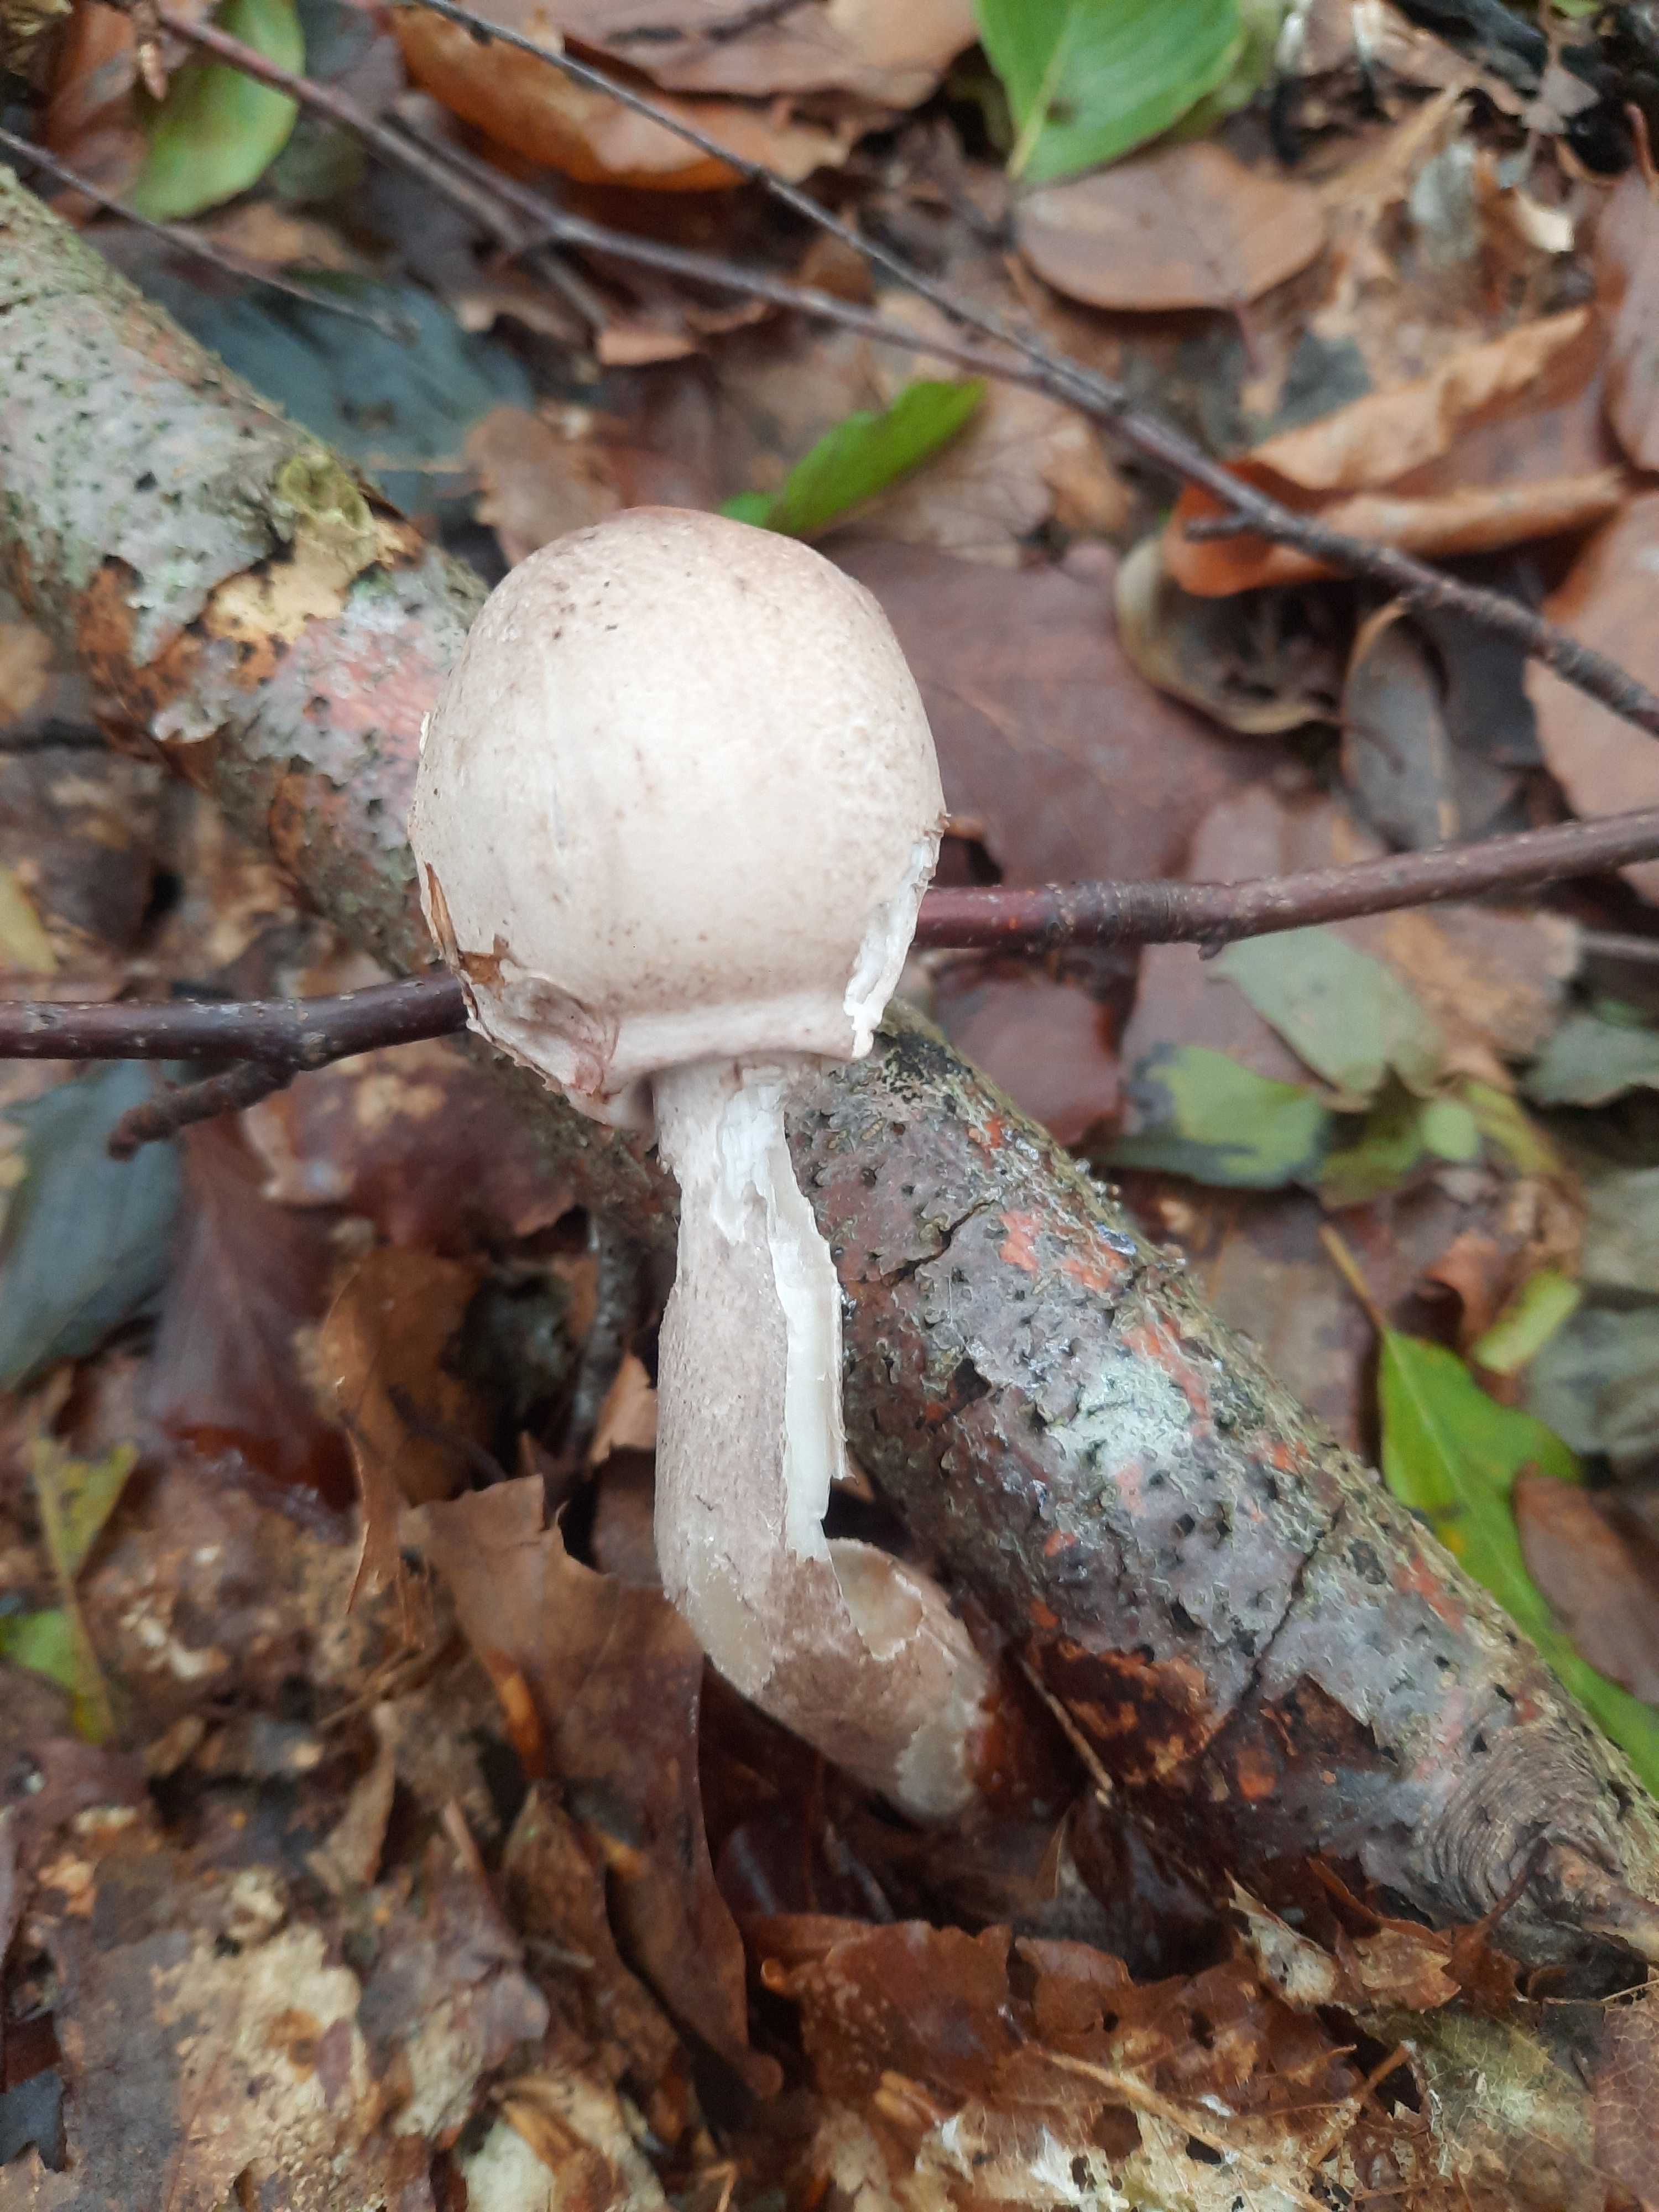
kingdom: Fungi
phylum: Basidiomycota
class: Agaricomycetes
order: Agaricales
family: Agaricaceae
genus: Macrolepiota
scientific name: Macrolepiota
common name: kæmpeparasolhat
